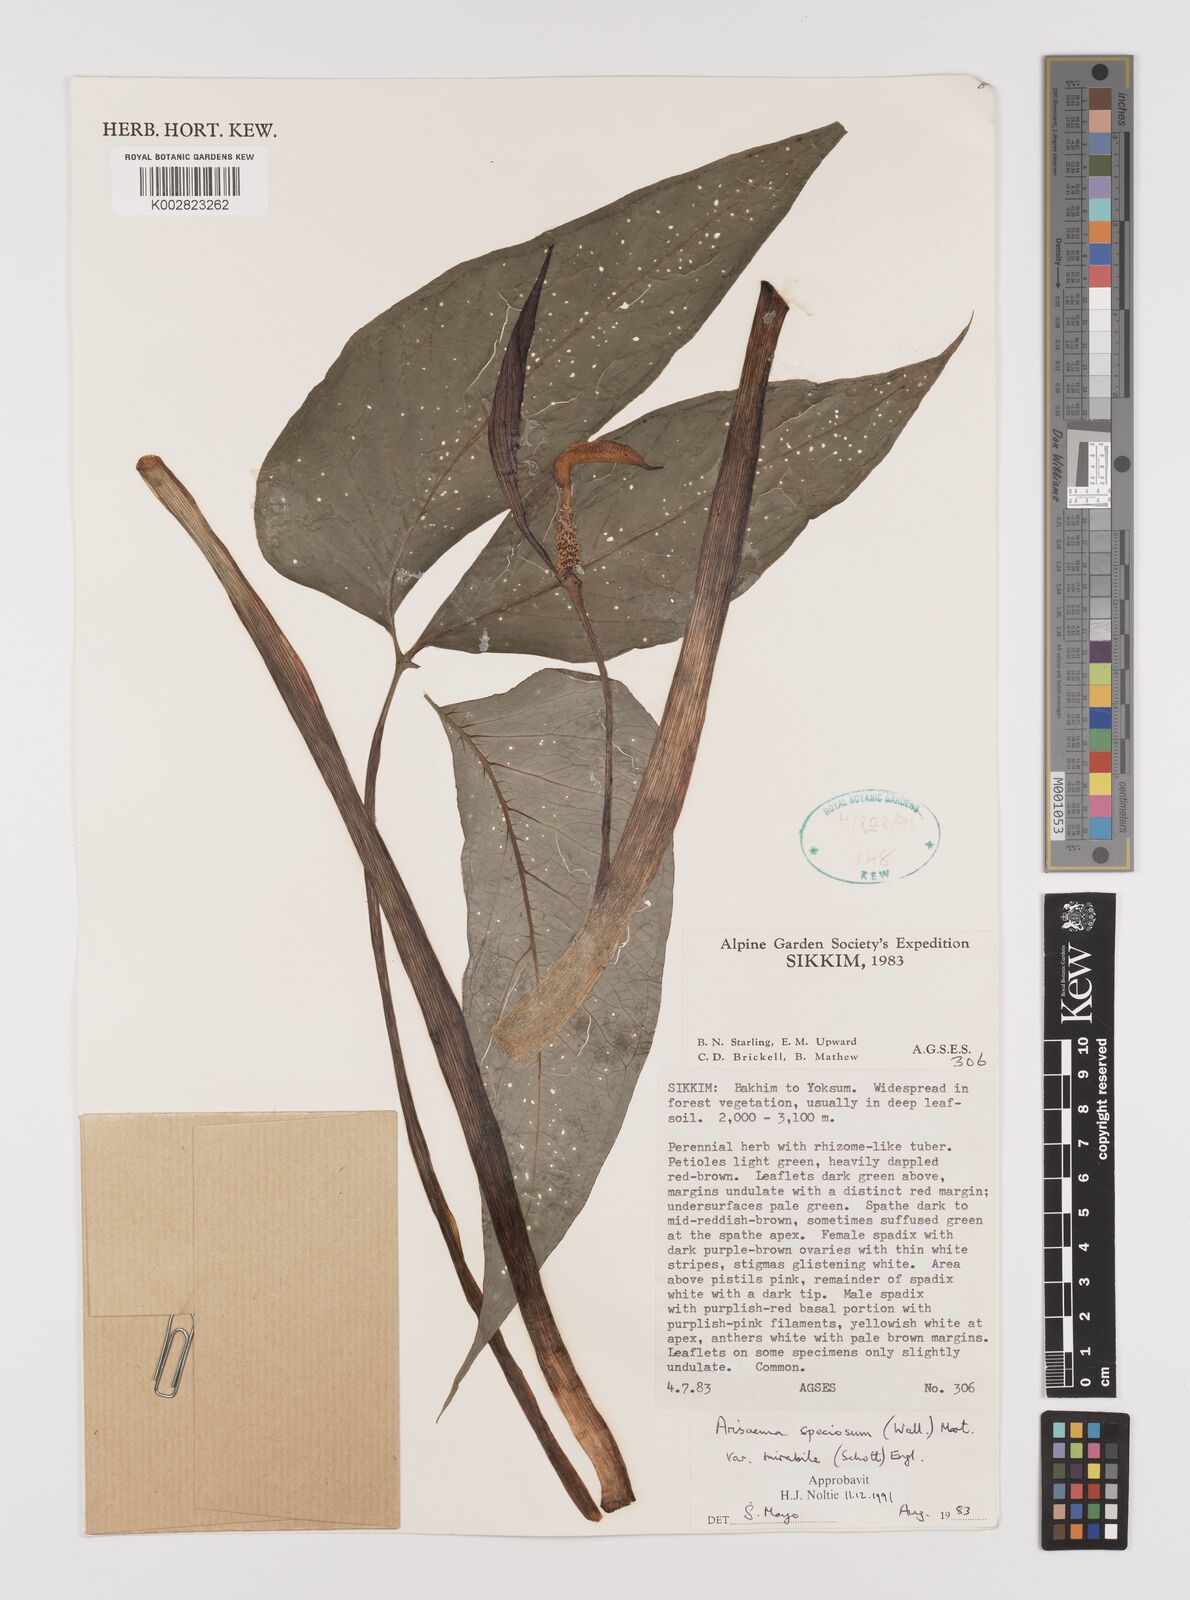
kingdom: Plantae
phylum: Tracheophyta
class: Liliopsida
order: Alismatales
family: Araceae
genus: Arisaema
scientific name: Arisaema speciosum
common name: Showy cobra-lily
